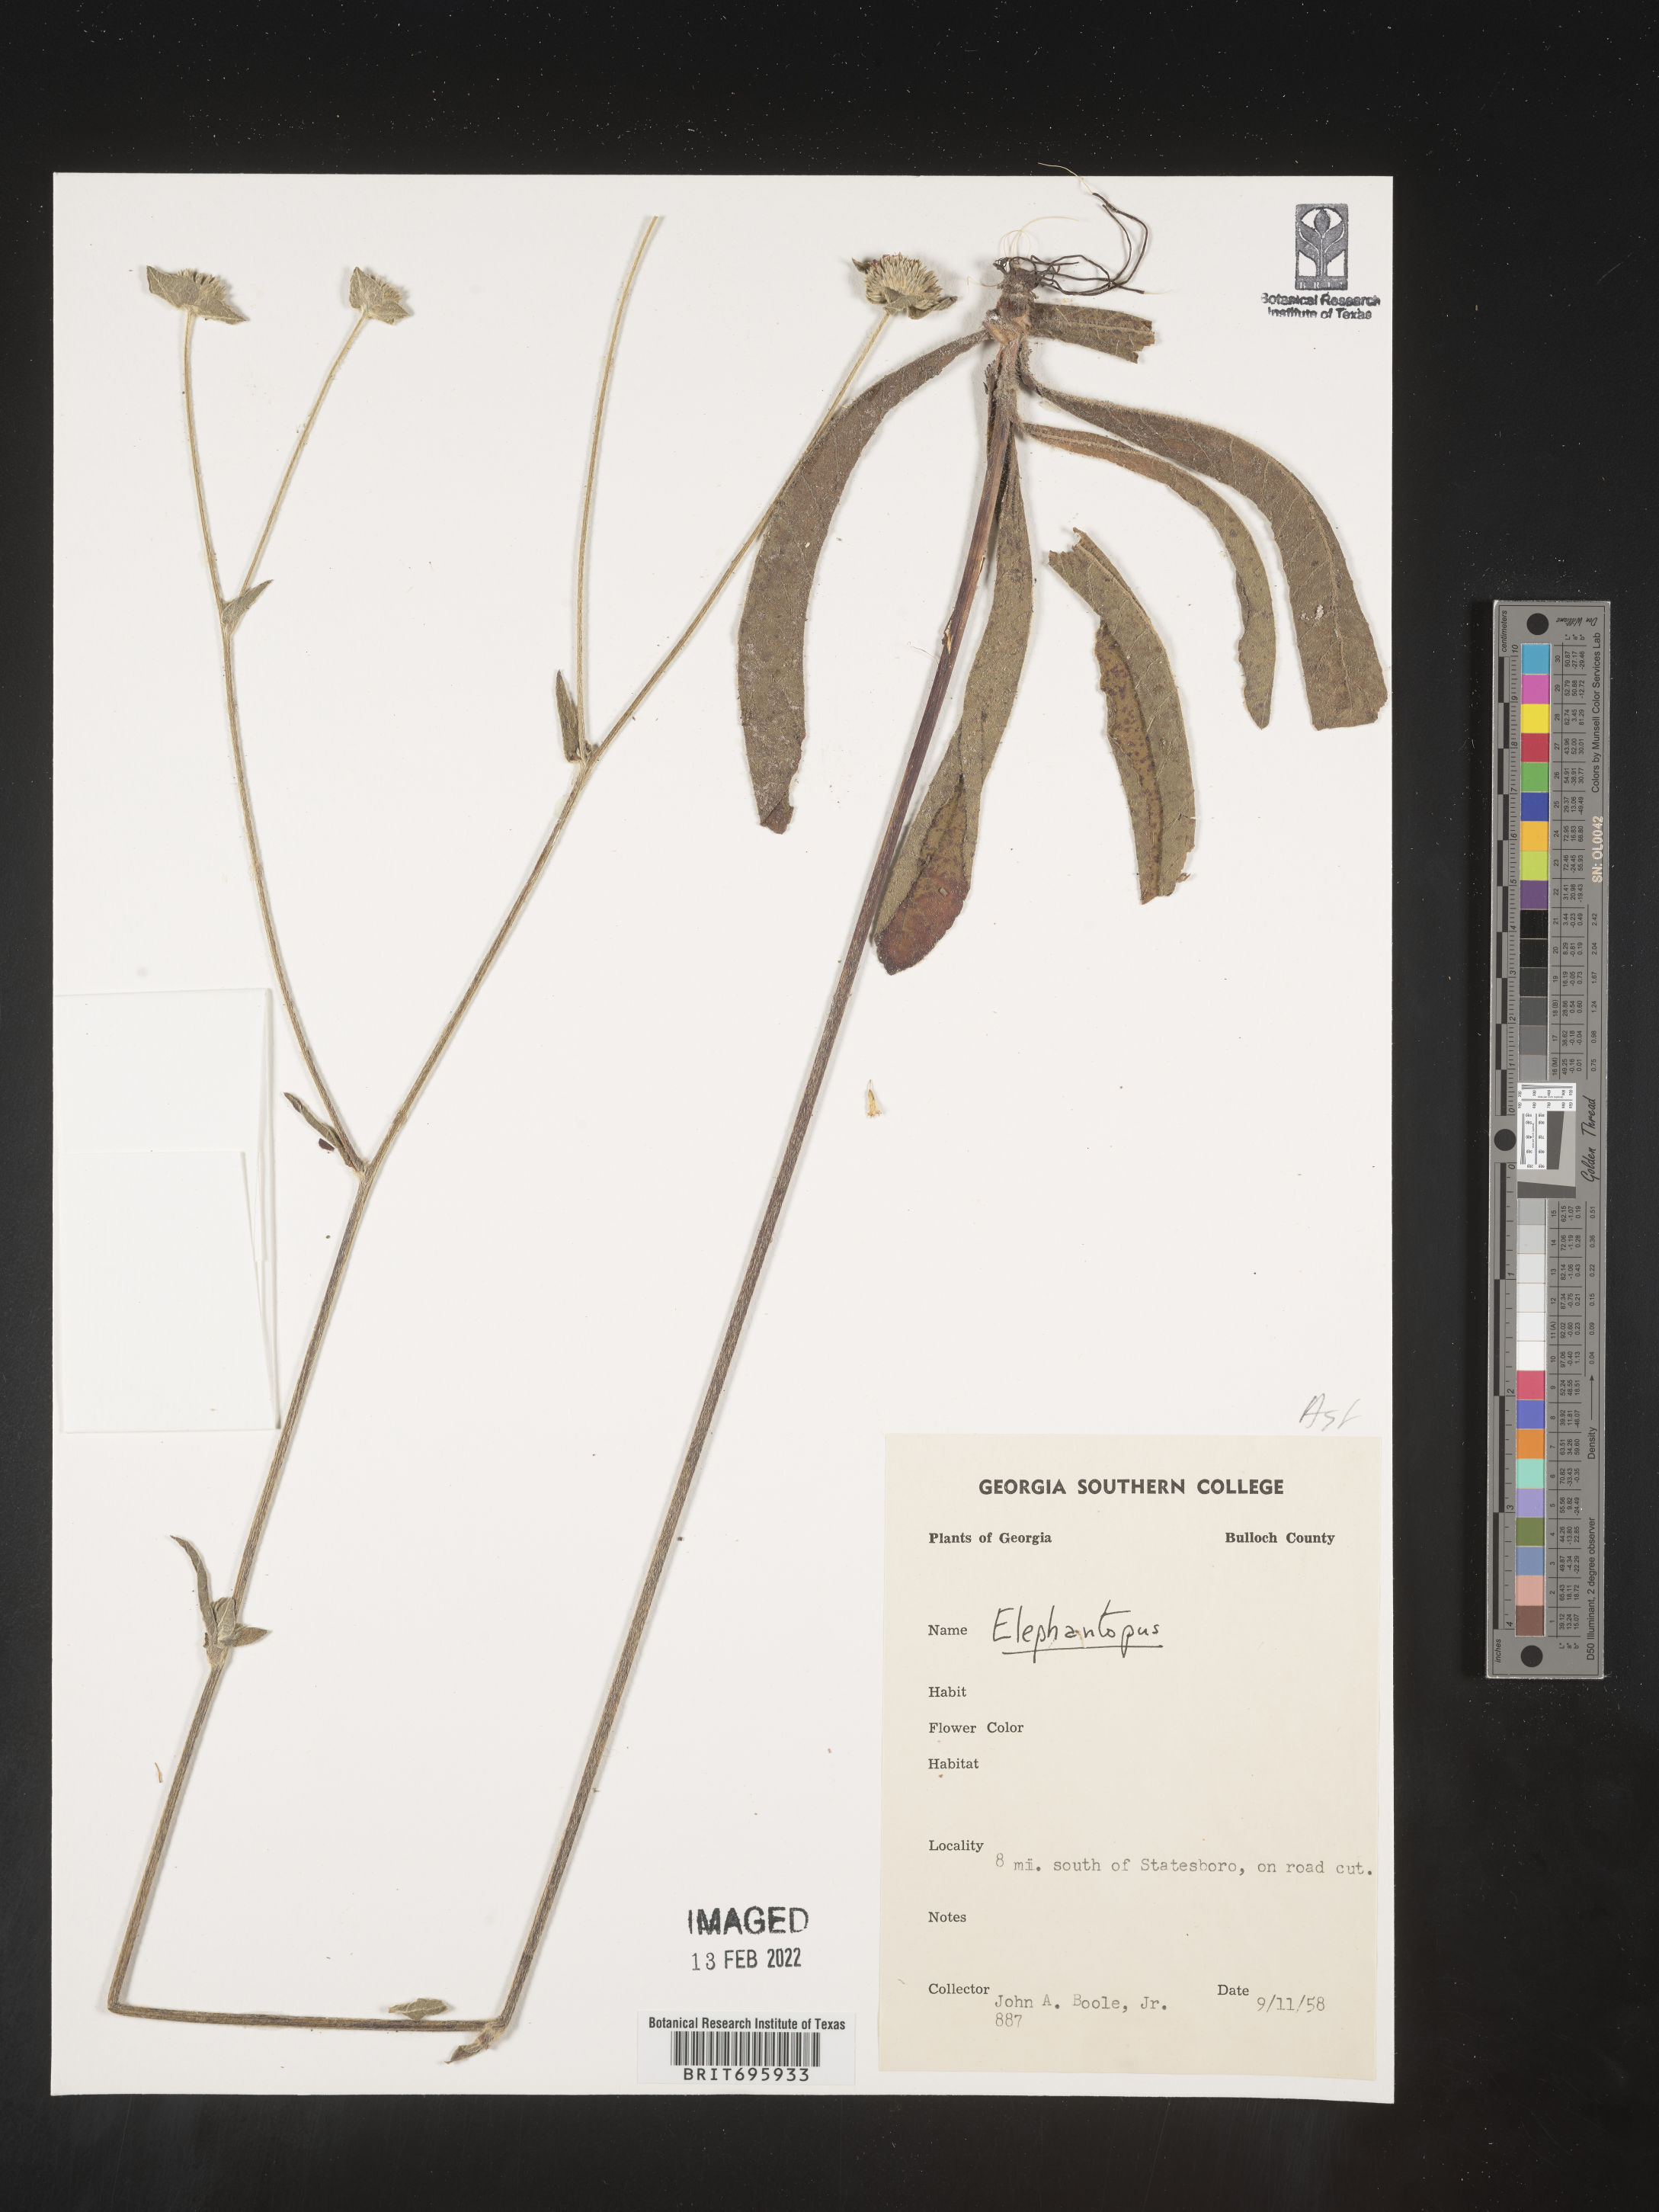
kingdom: Plantae
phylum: Tracheophyta
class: Magnoliopsida
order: Asterales
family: Asteraceae
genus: Elephantopus
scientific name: Elephantopus
